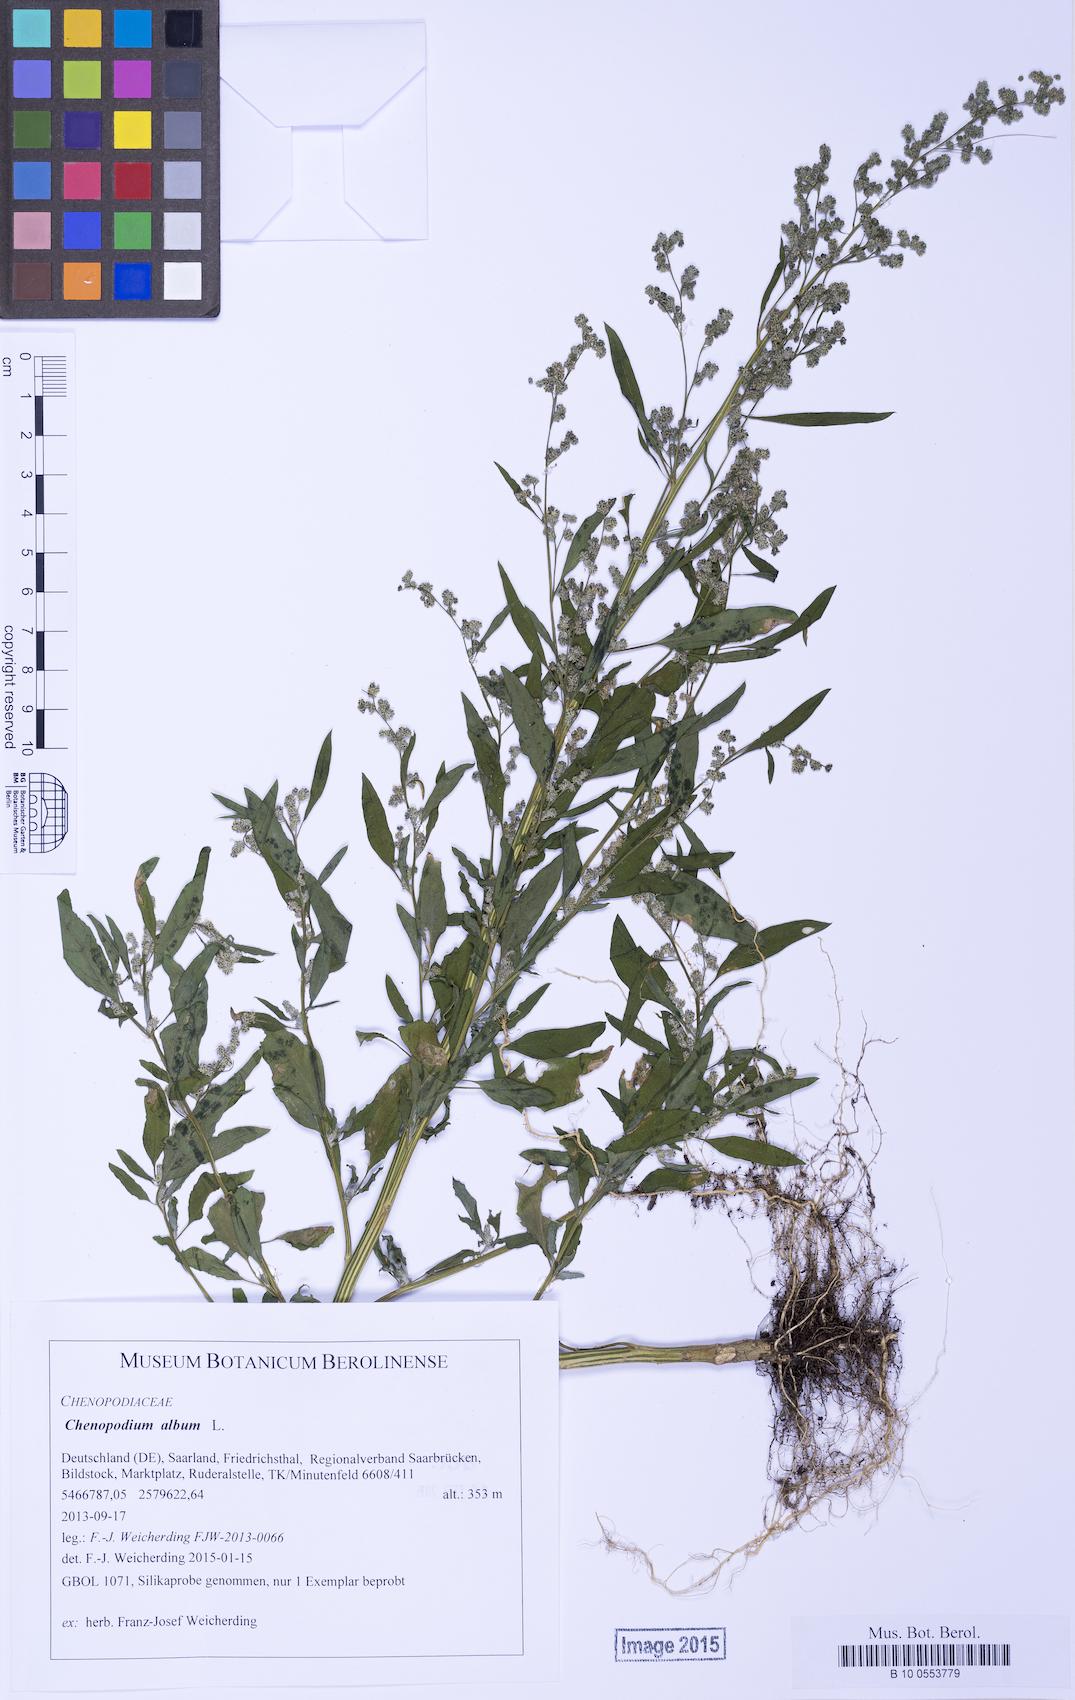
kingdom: Plantae
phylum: Tracheophyta
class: Magnoliopsida
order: Caryophyllales
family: Amaranthaceae
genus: Chenopodium
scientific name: Chenopodium album
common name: Fat-hen
